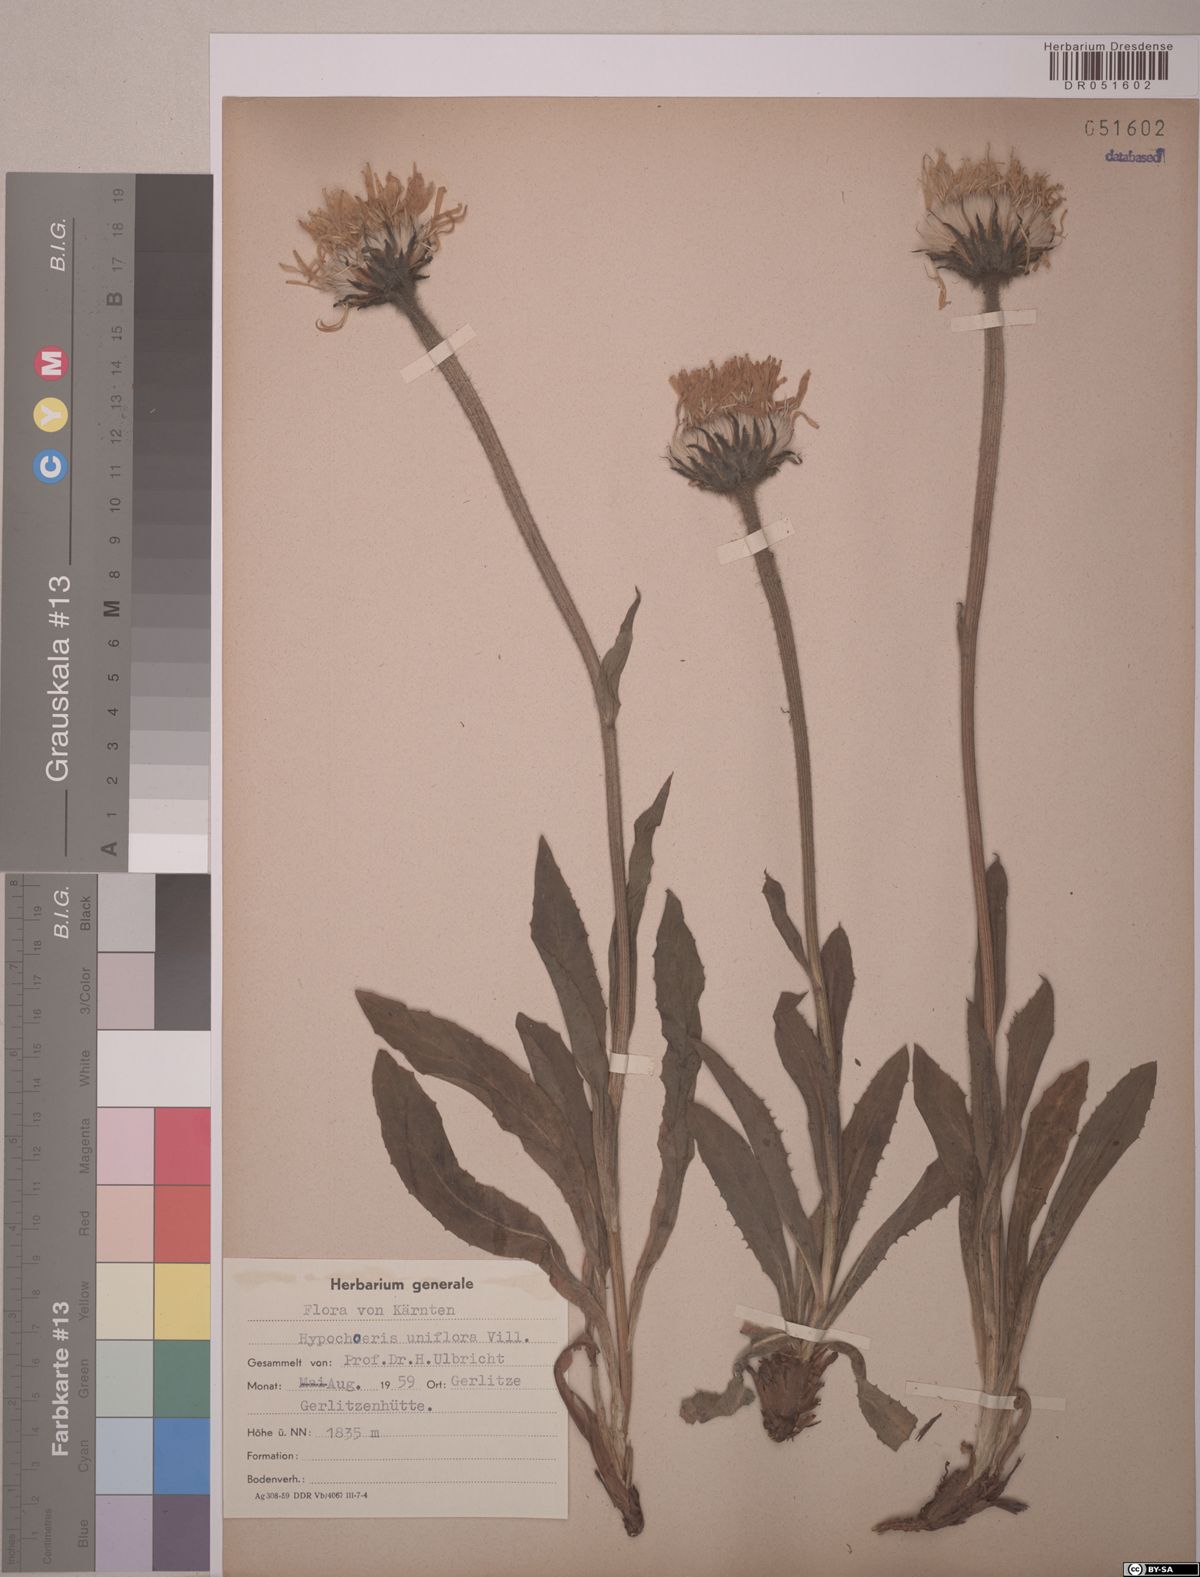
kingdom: Plantae
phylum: Tracheophyta
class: Magnoliopsida
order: Asterales
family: Asteraceae
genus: Trommsdorffia
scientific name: Trommsdorffia uniflora
